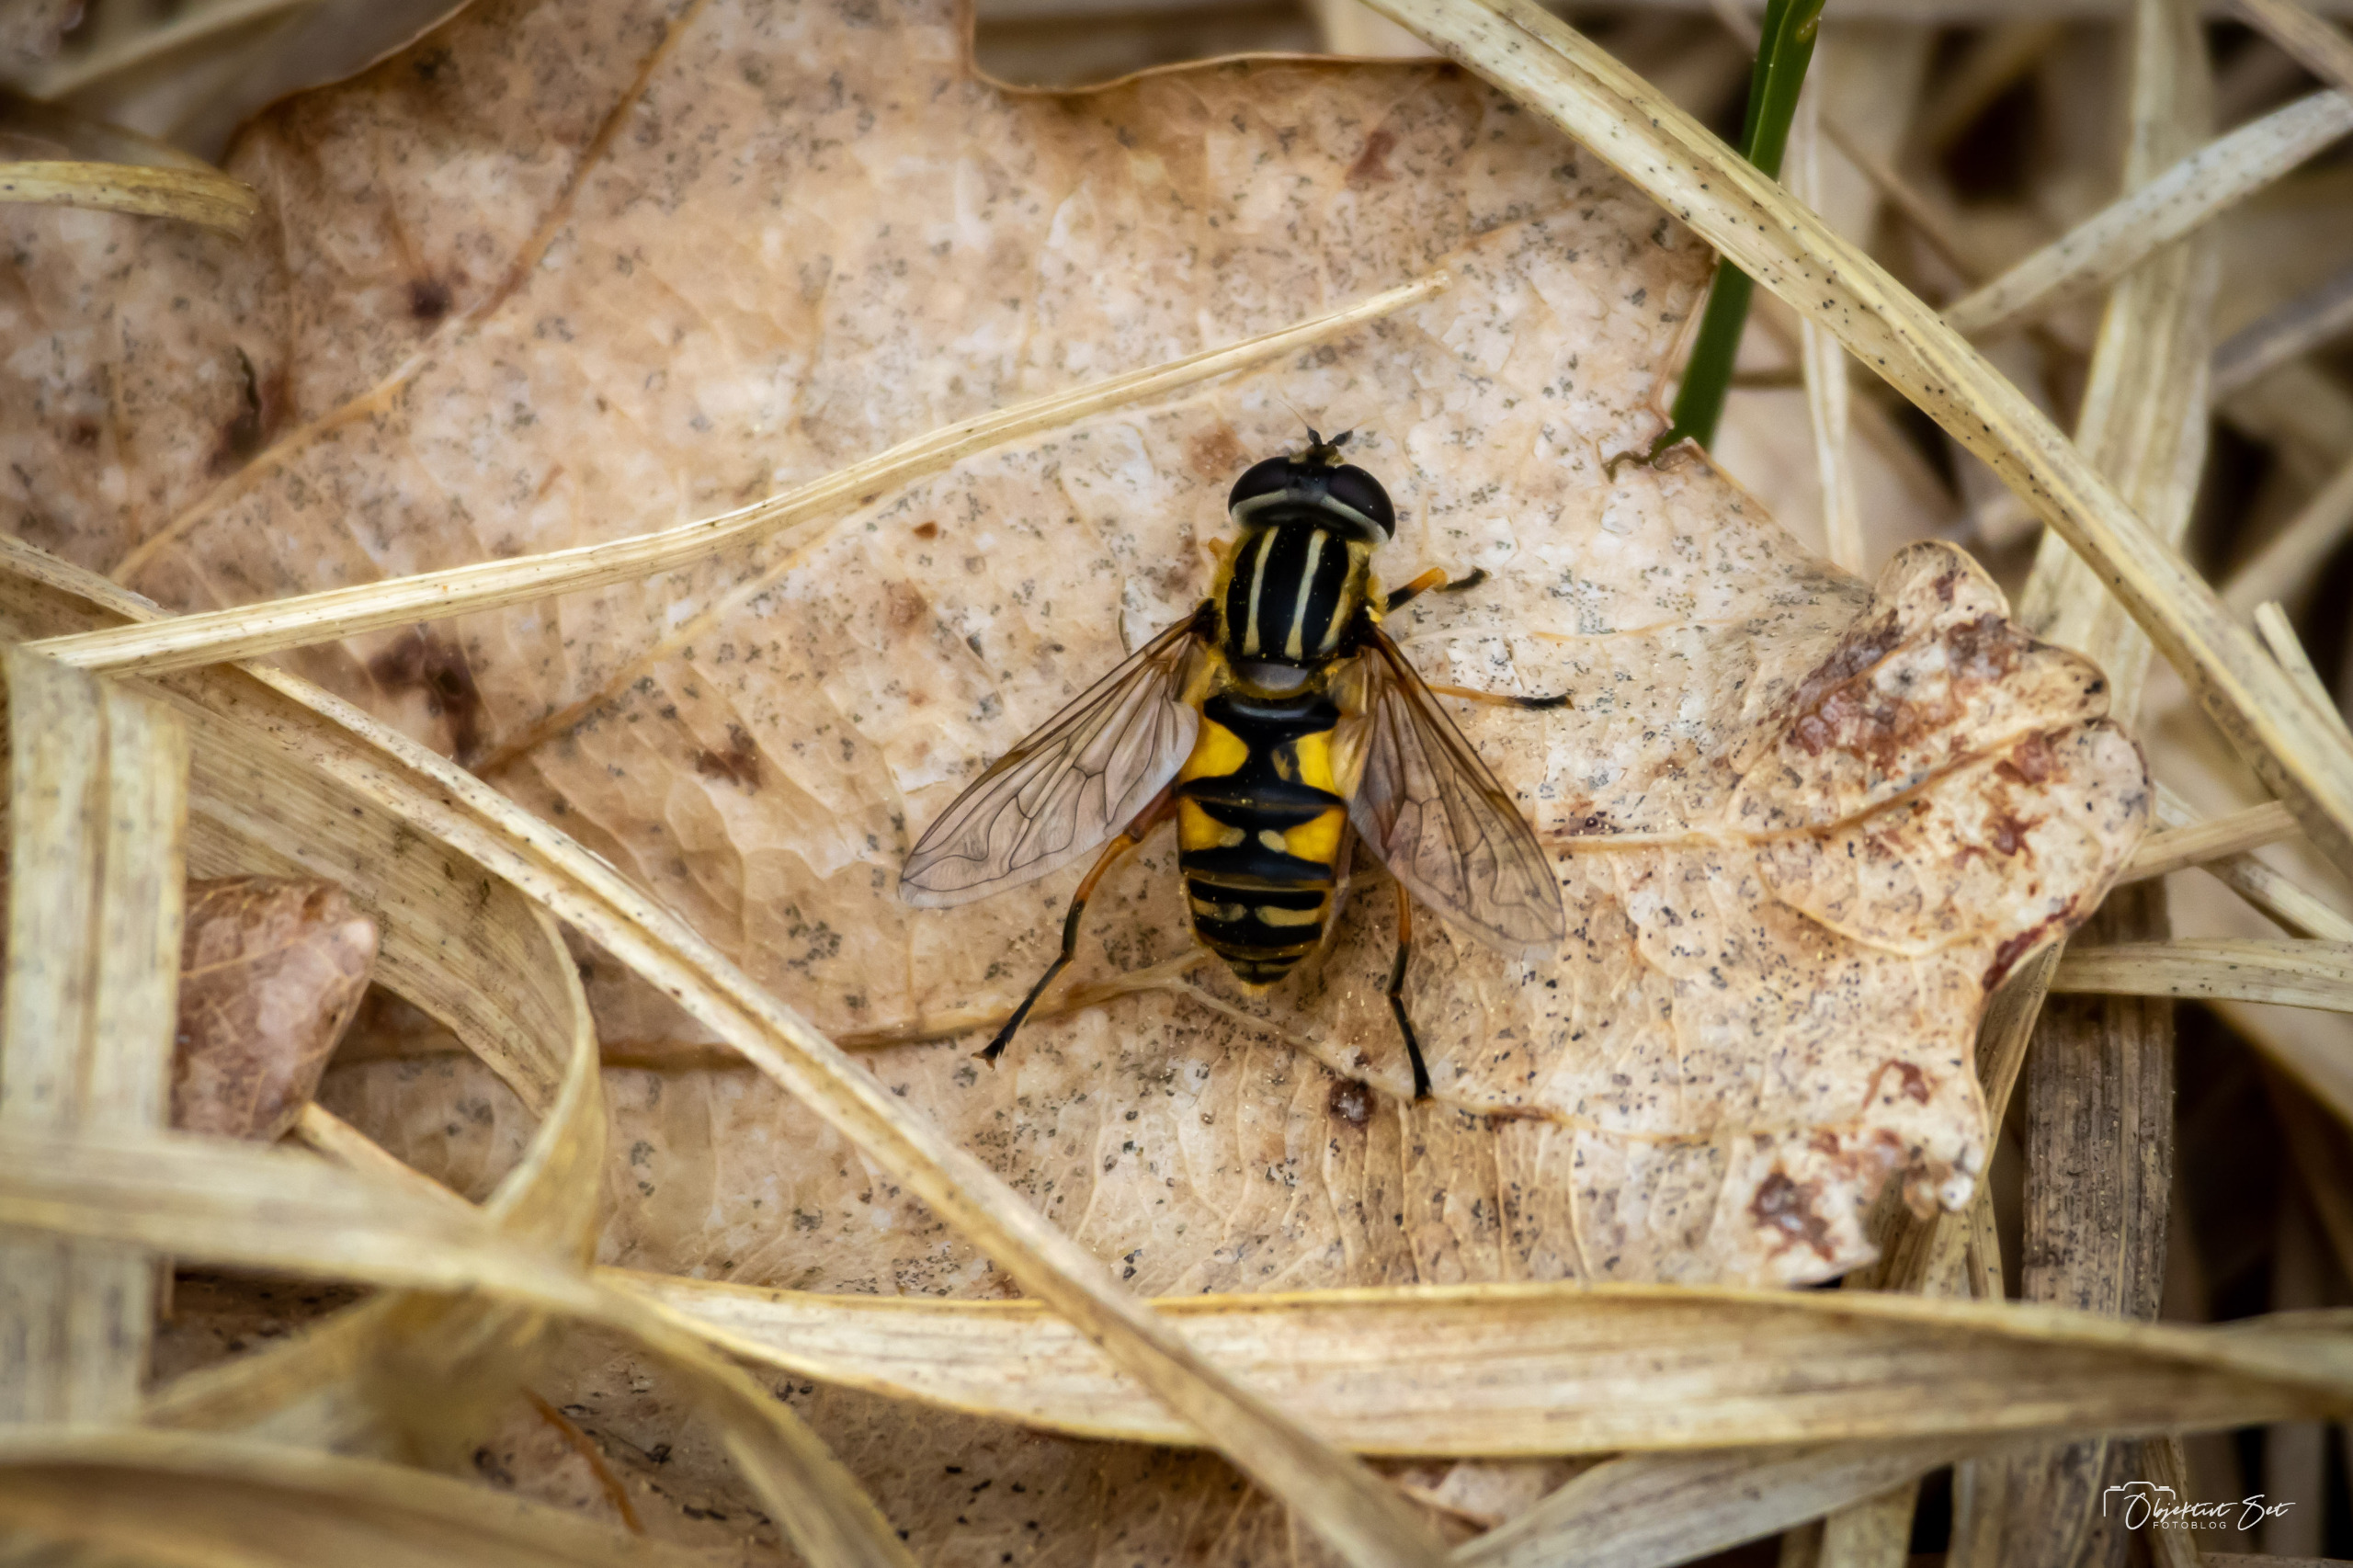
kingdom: Animalia
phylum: Arthropoda
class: Insecta
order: Diptera
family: Syrphidae
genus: Helophilus
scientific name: Helophilus pendulus
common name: Almindelig sumpsvirreflue
